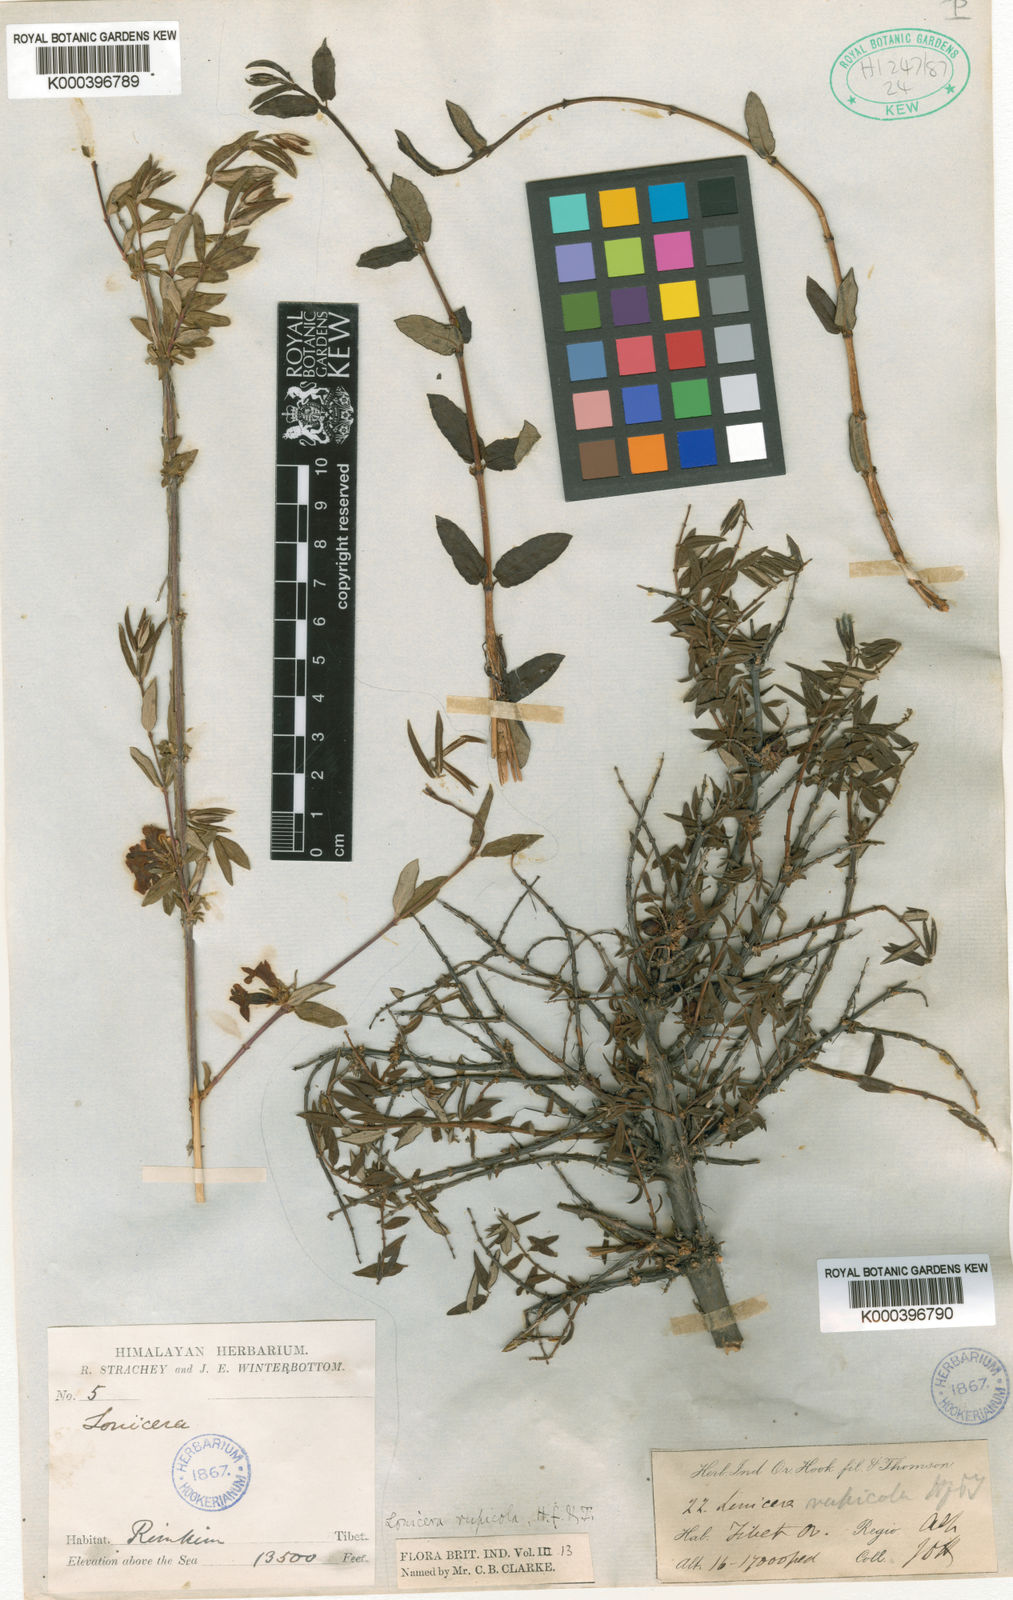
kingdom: Plantae
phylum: Tracheophyta
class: Magnoliopsida
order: Dipsacales
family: Caprifoliaceae
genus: Lonicera
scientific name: Lonicera rupicola
